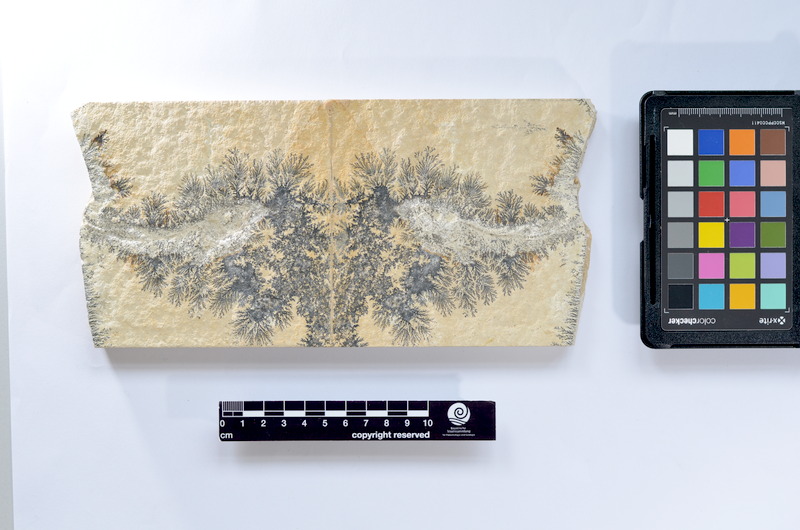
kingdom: Animalia
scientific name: Animalia
